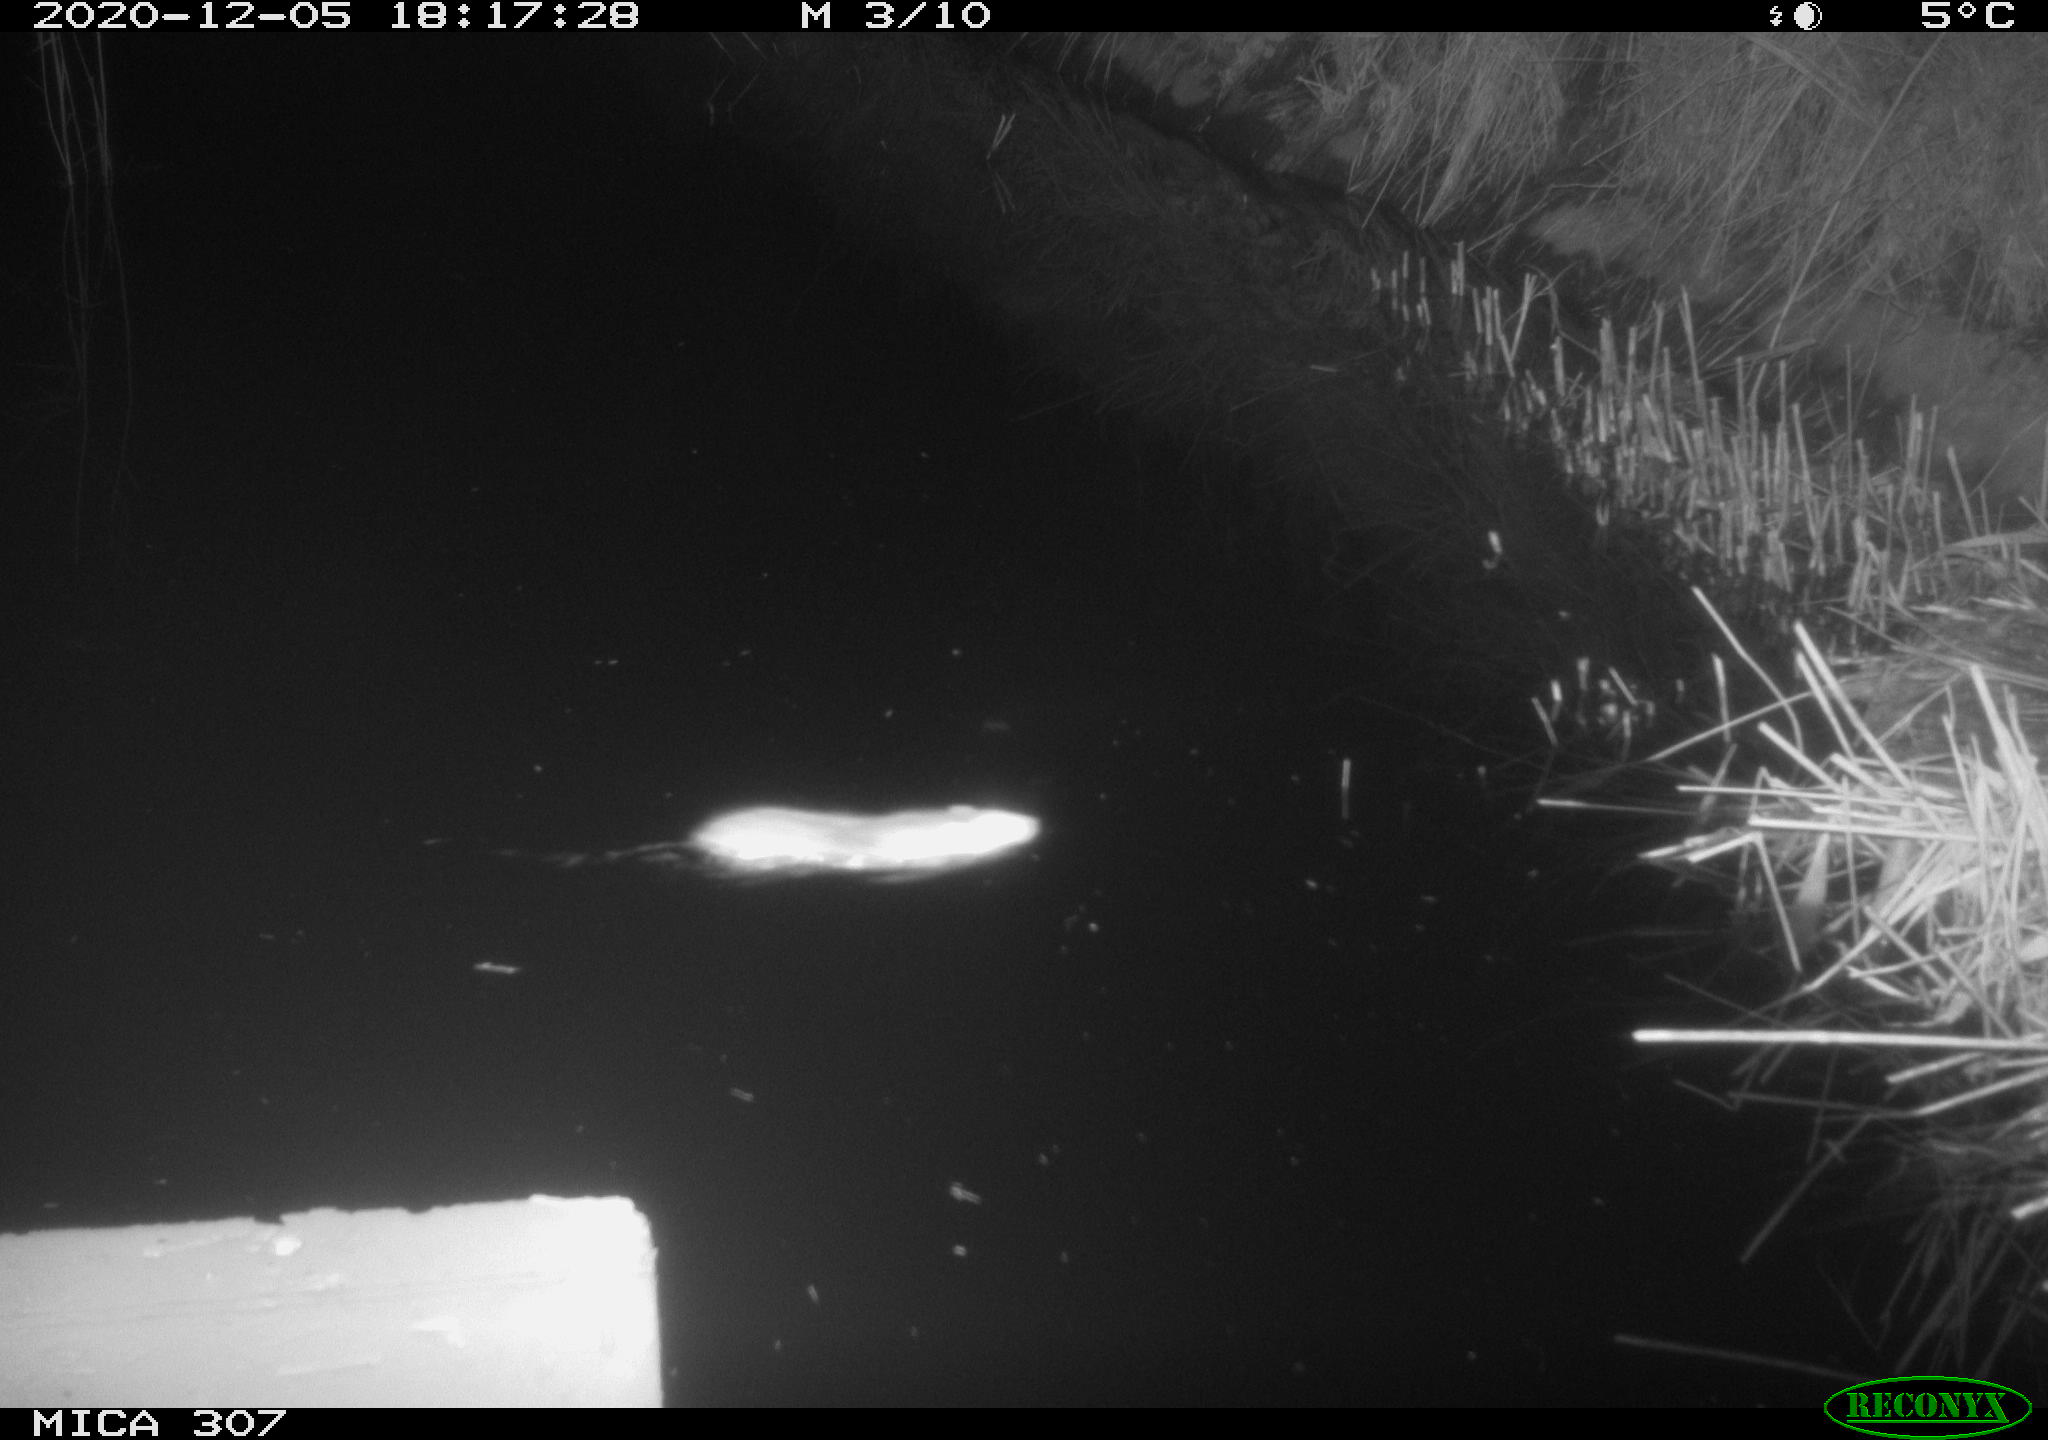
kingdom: Animalia
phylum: Chordata
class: Mammalia
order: Rodentia
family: Muridae
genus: Rattus
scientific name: Rattus norvegicus
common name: Brown rat
